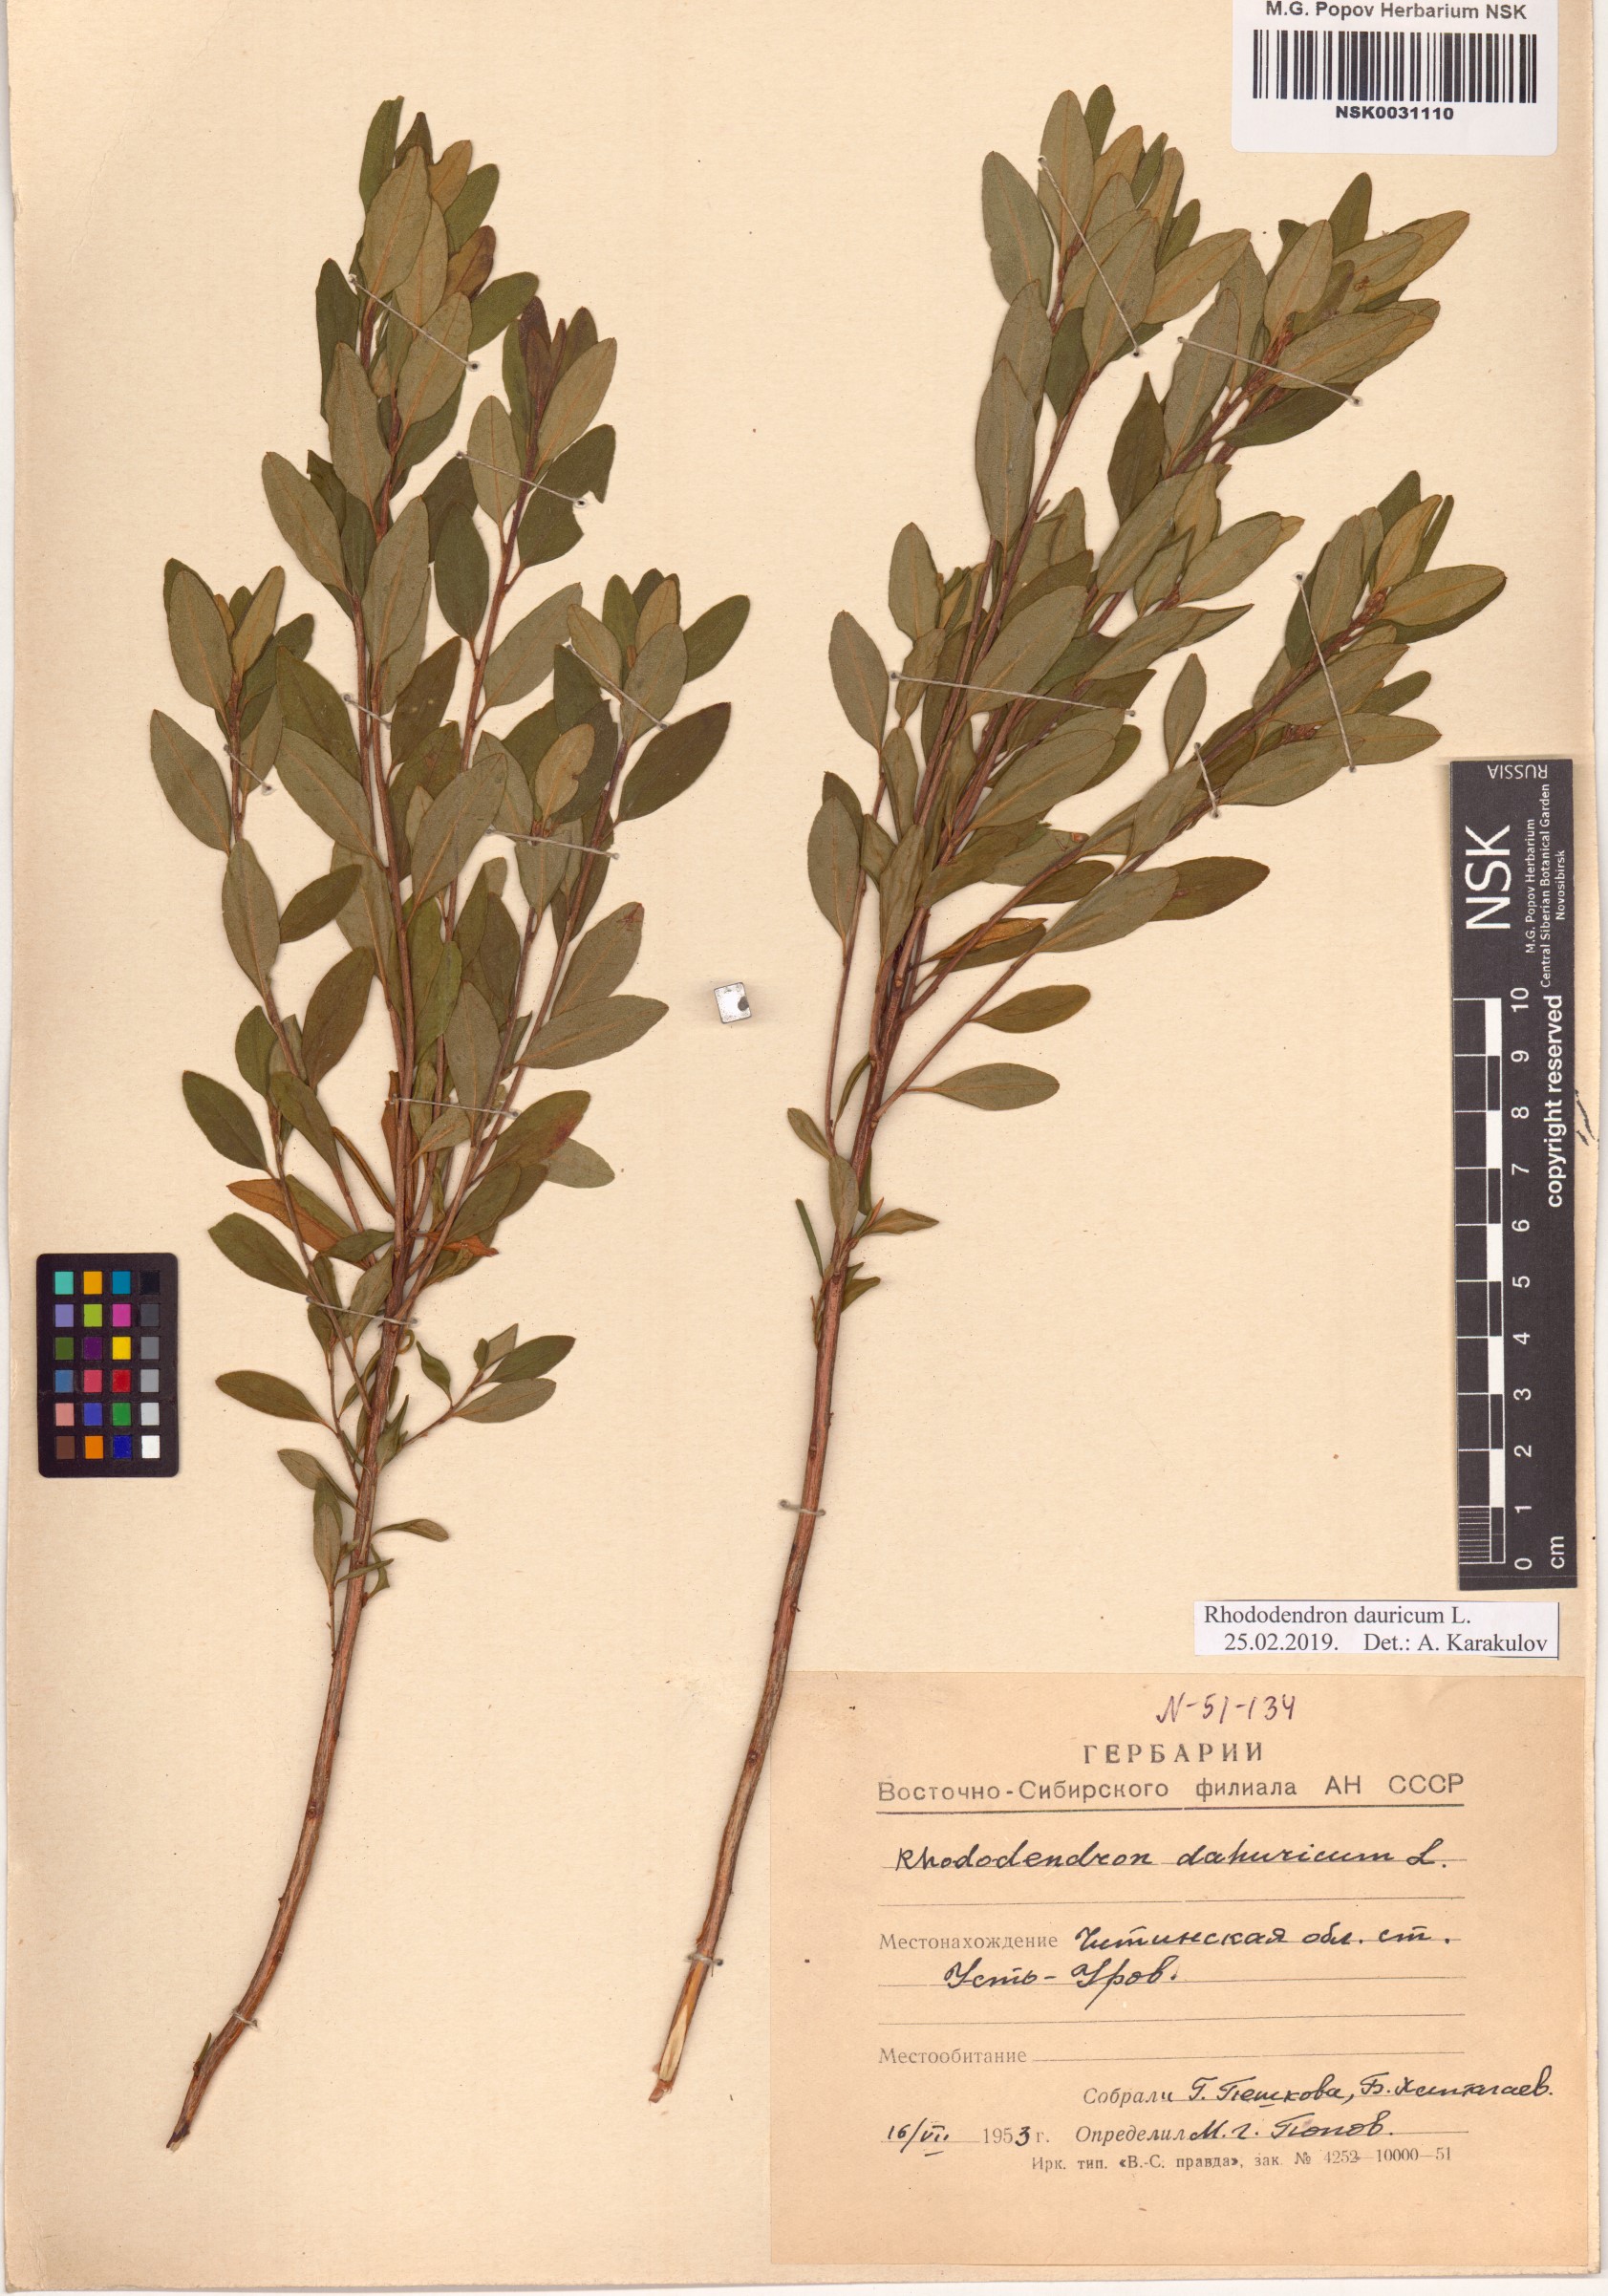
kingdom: Plantae
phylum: Tracheophyta
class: Magnoliopsida
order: Ericales
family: Ericaceae
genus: Rhododendron
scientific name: Rhododendron dauricum
